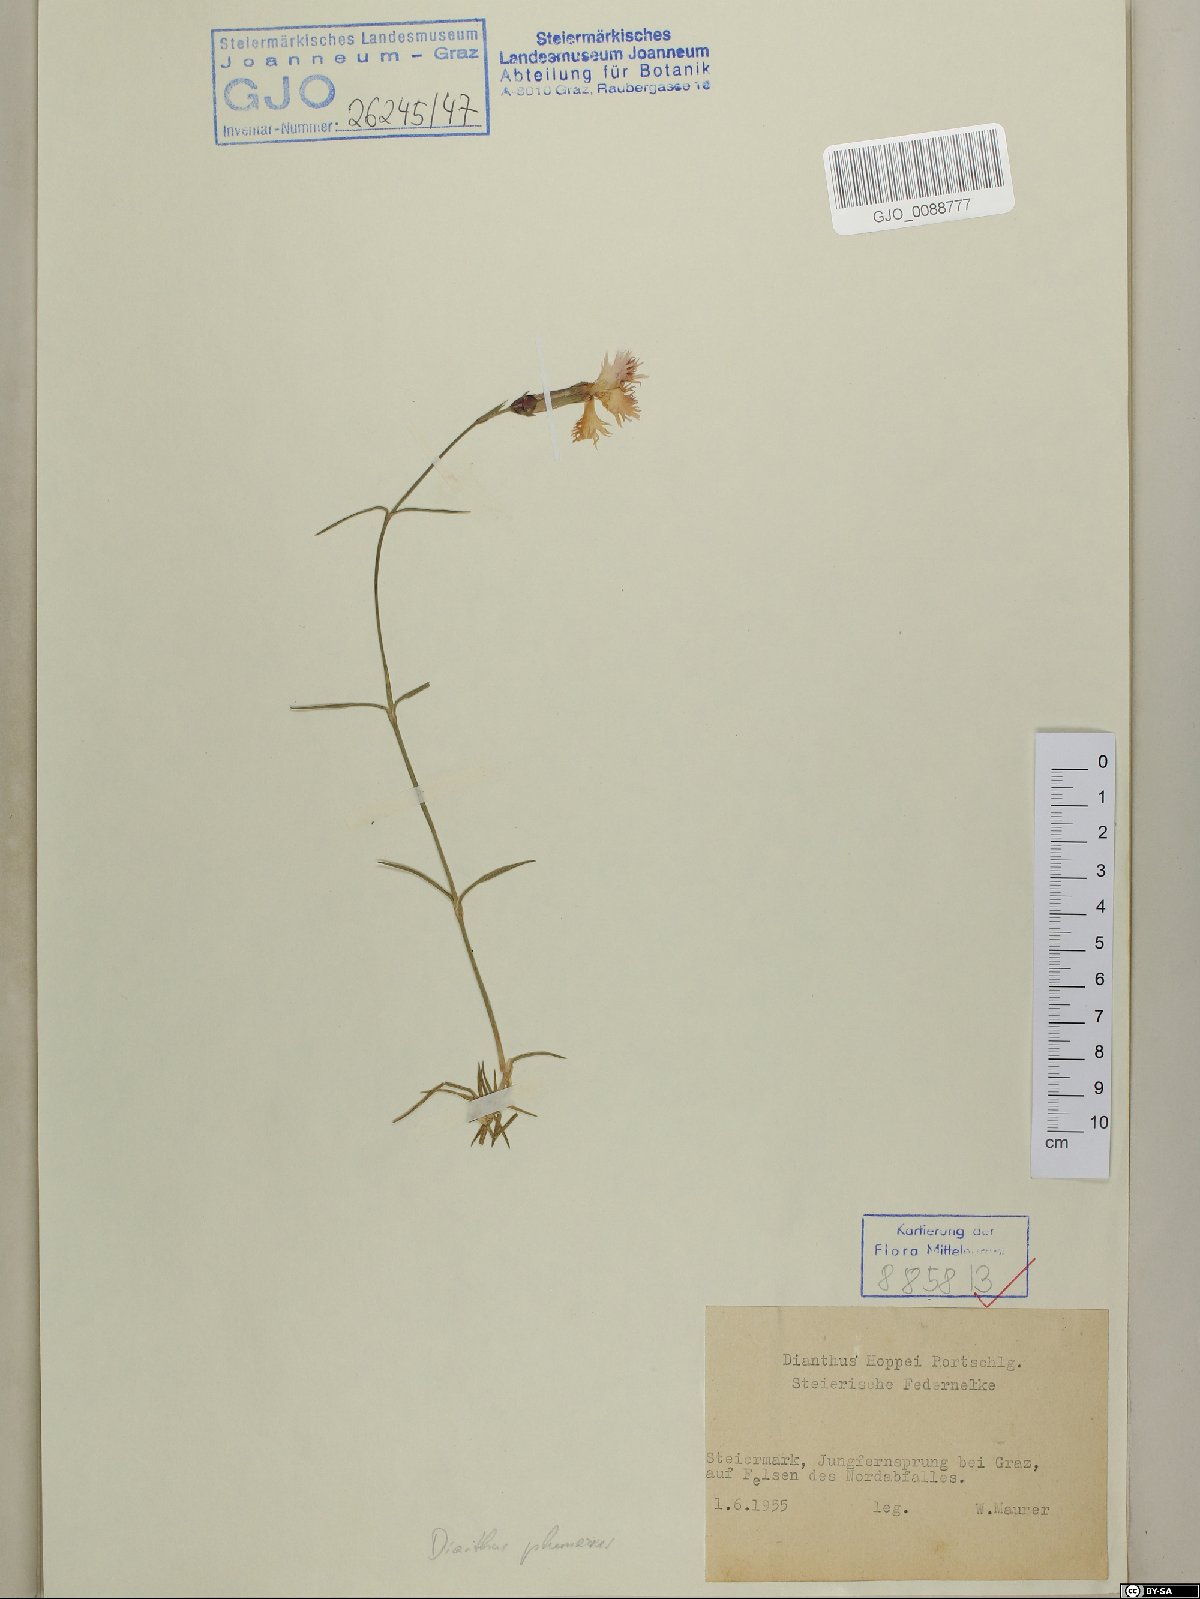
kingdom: Plantae
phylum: Tracheophyta
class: Magnoliopsida
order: Caryophyllales
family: Caryophyllaceae
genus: Dianthus
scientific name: Dianthus plumarius
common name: Pink
